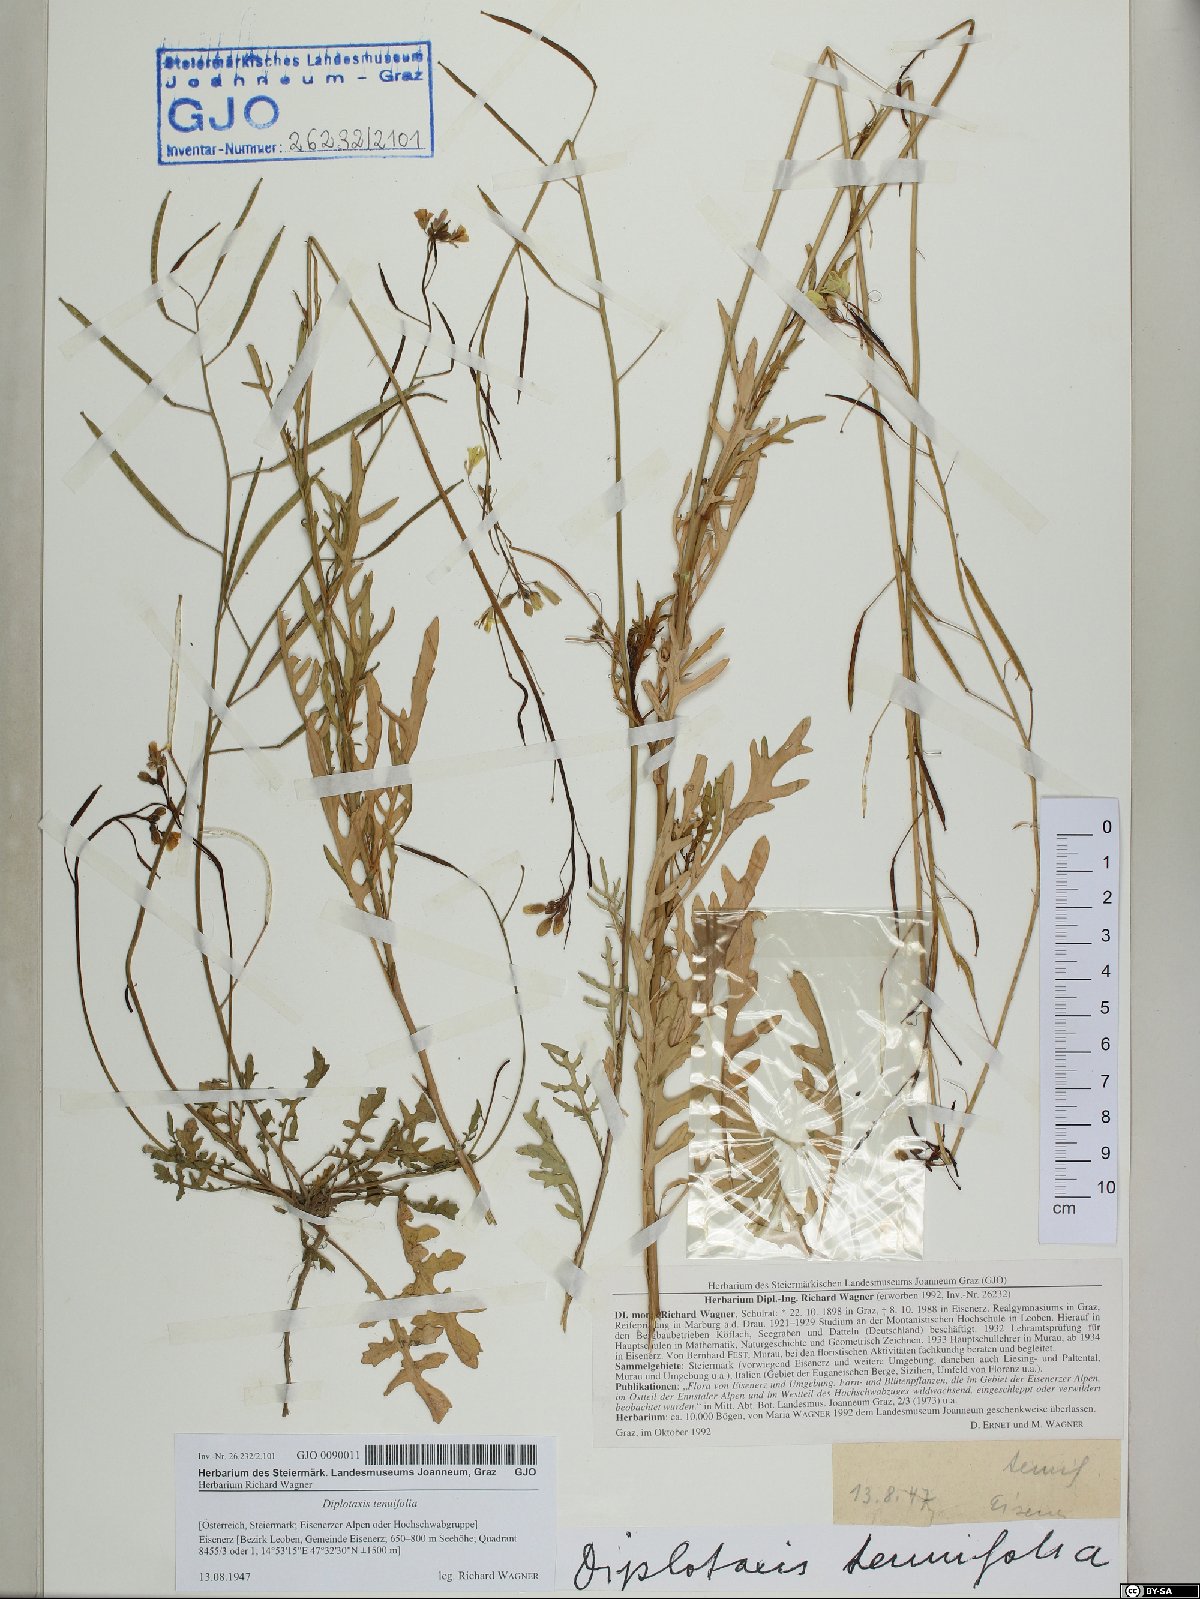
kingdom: Plantae
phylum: Tracheophyta
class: Magnoliopsida
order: Brassicales
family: Brassicaceae
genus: Diplotaxis
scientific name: Diplotaxis tenuifolia
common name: Perennial wall-rocket
